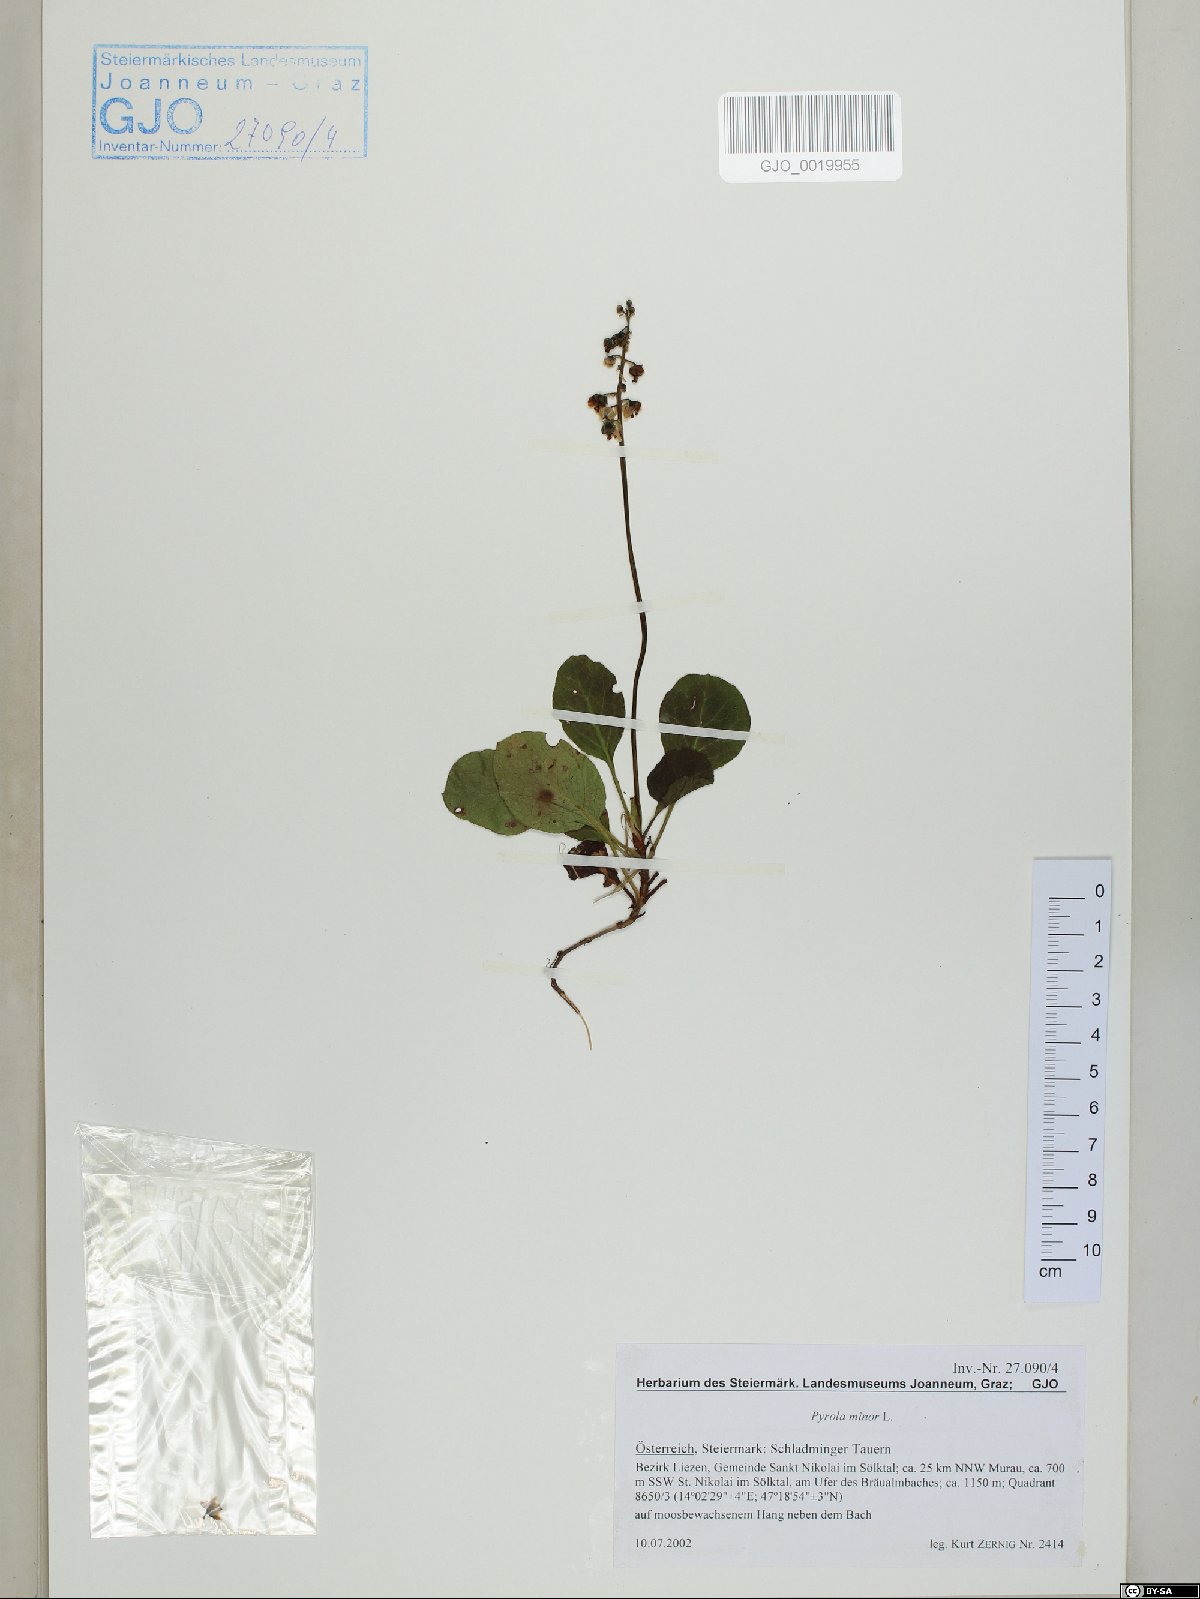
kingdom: Plantae
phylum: Tracheophyta
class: Magnoliopsida
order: Ericales
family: Ericaceae
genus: Pyrola
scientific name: Pyrola minor
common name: Common wintergreen
